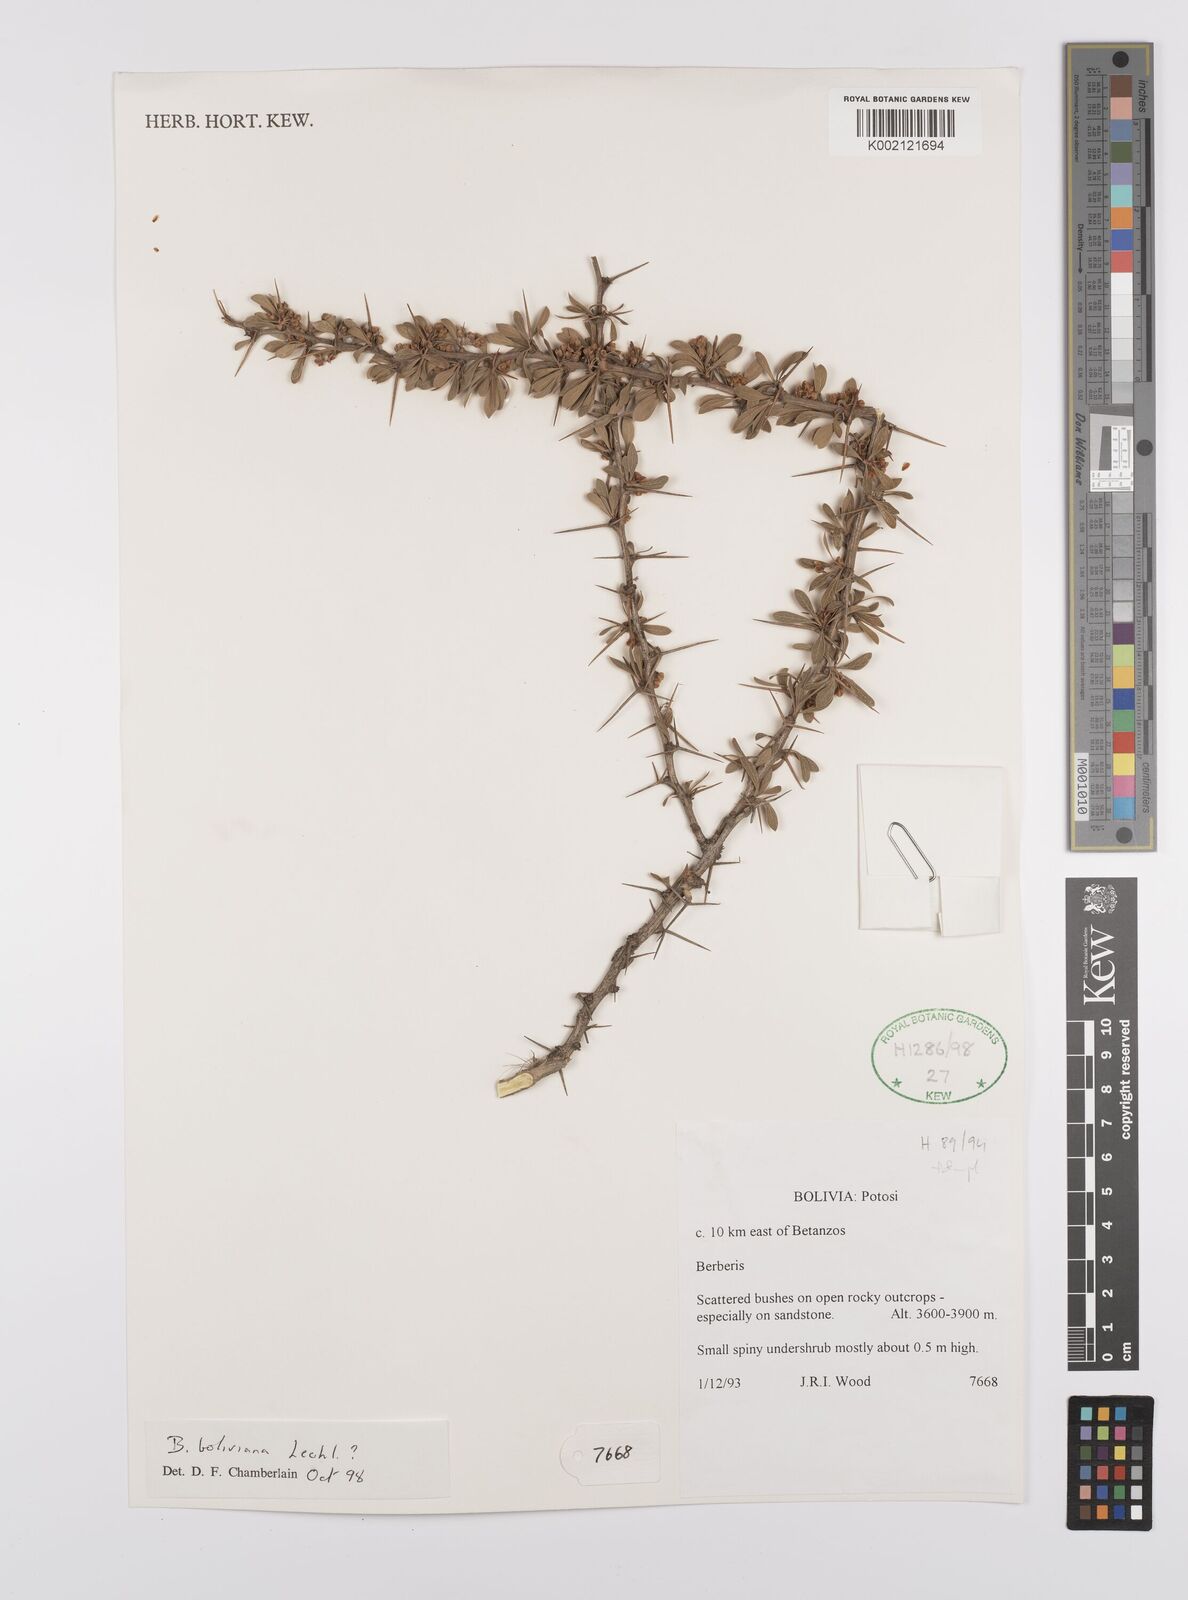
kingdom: Plantae
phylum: Tracheophyta
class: Magnoliopsida
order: Ranunculales
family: Berberidaceae
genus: Berberis
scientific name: Berberis boliviana
